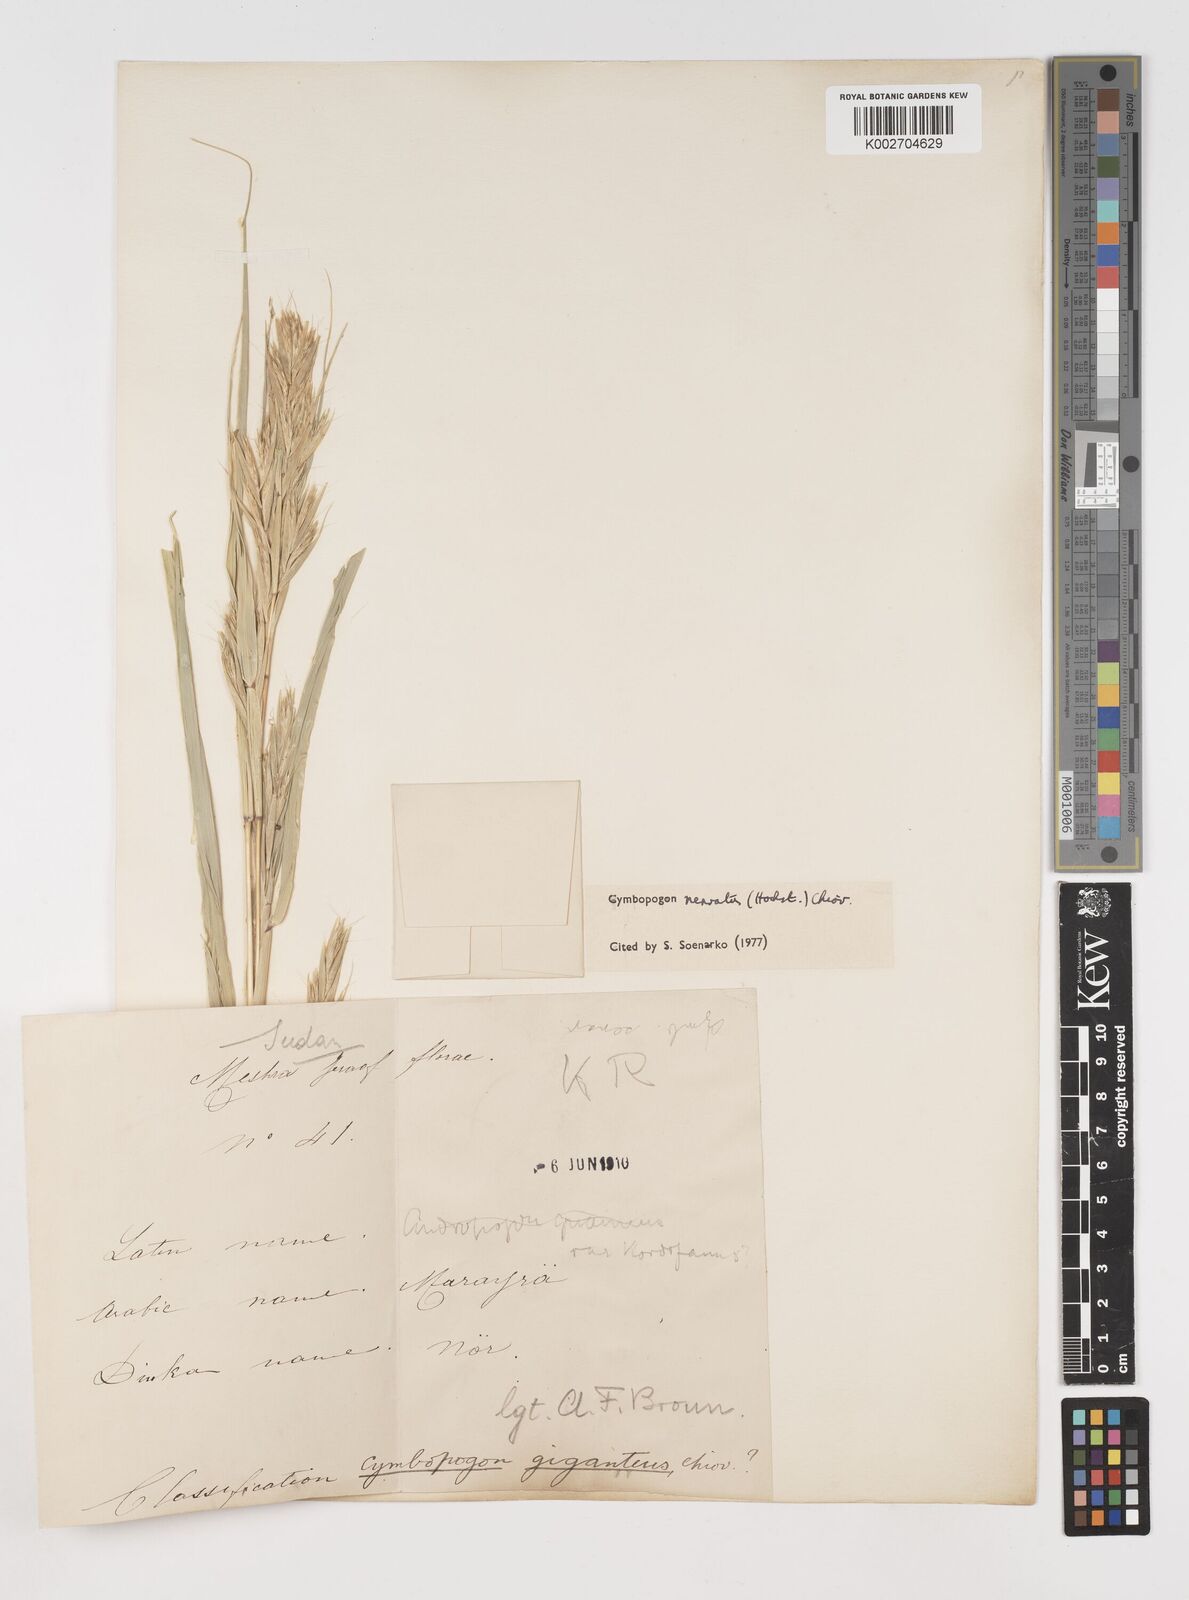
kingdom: Plantae
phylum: Tracheophyta
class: Liliopsida
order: Poales
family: Poaceae
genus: Cymbopogon
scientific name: Cymbopogon nervatus
